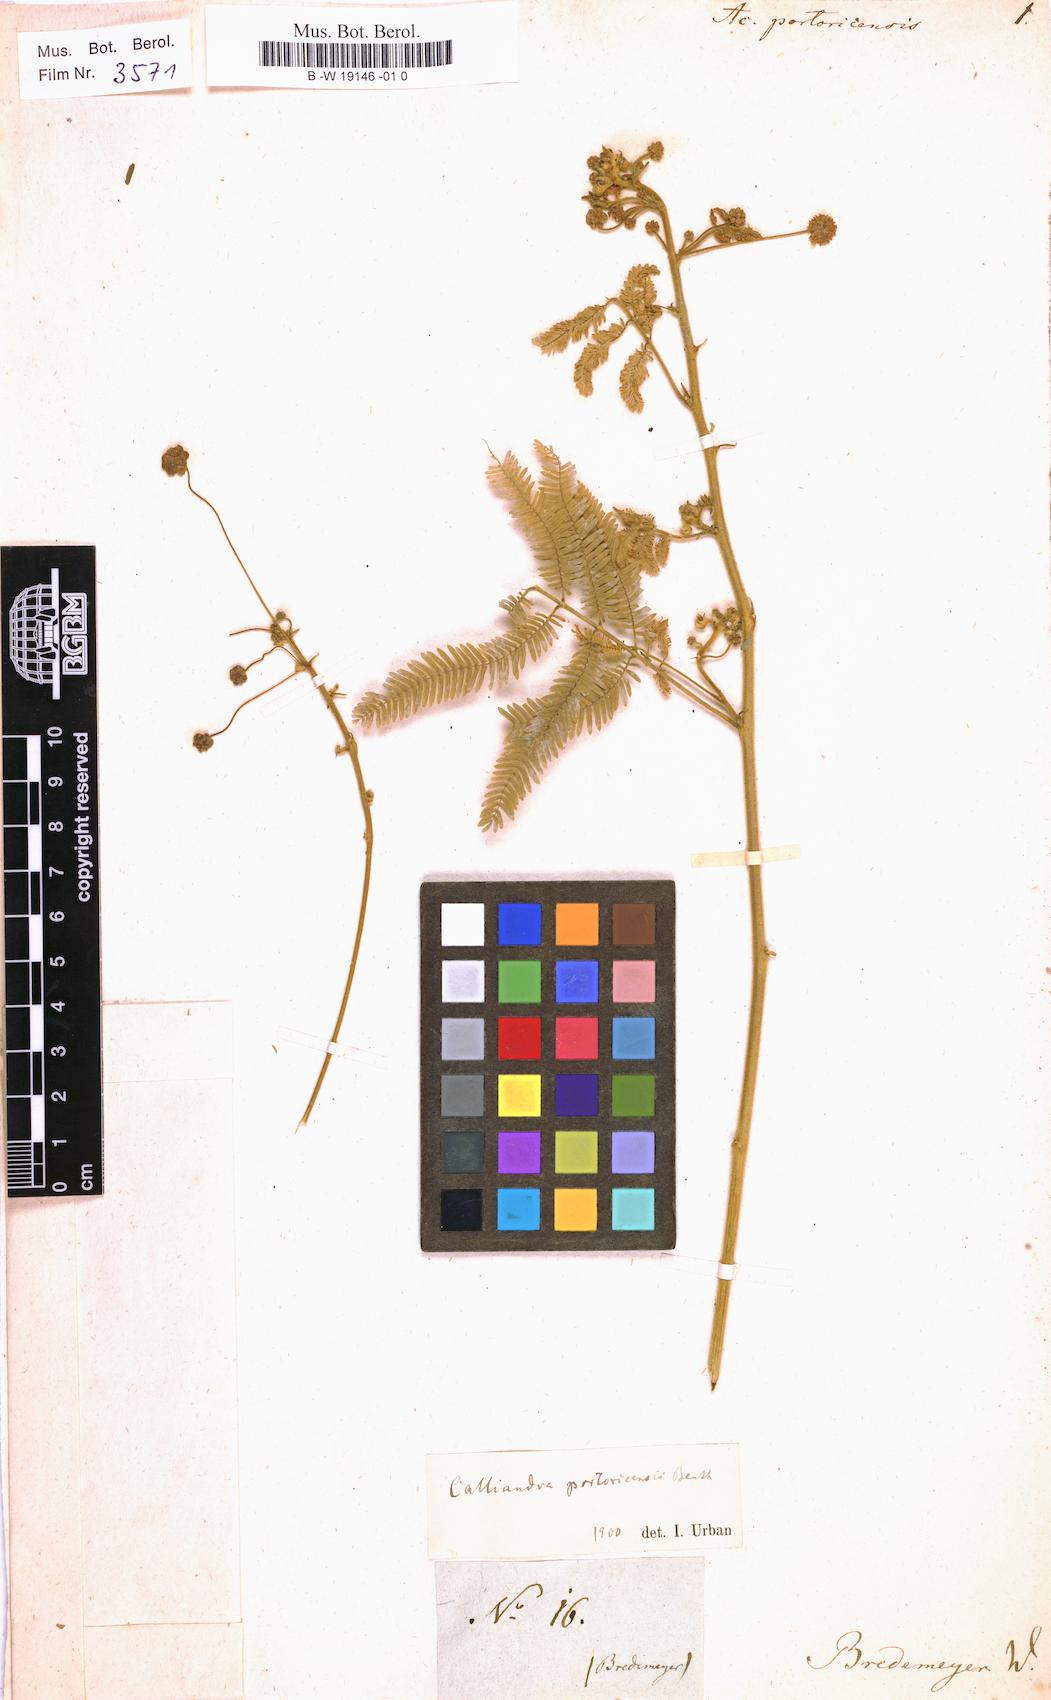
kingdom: Plantae
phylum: Tracheophyta
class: Magnoliopsida
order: Fabales
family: Fabaceae
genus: Zapoteca
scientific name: Zapoteca portoricensis
